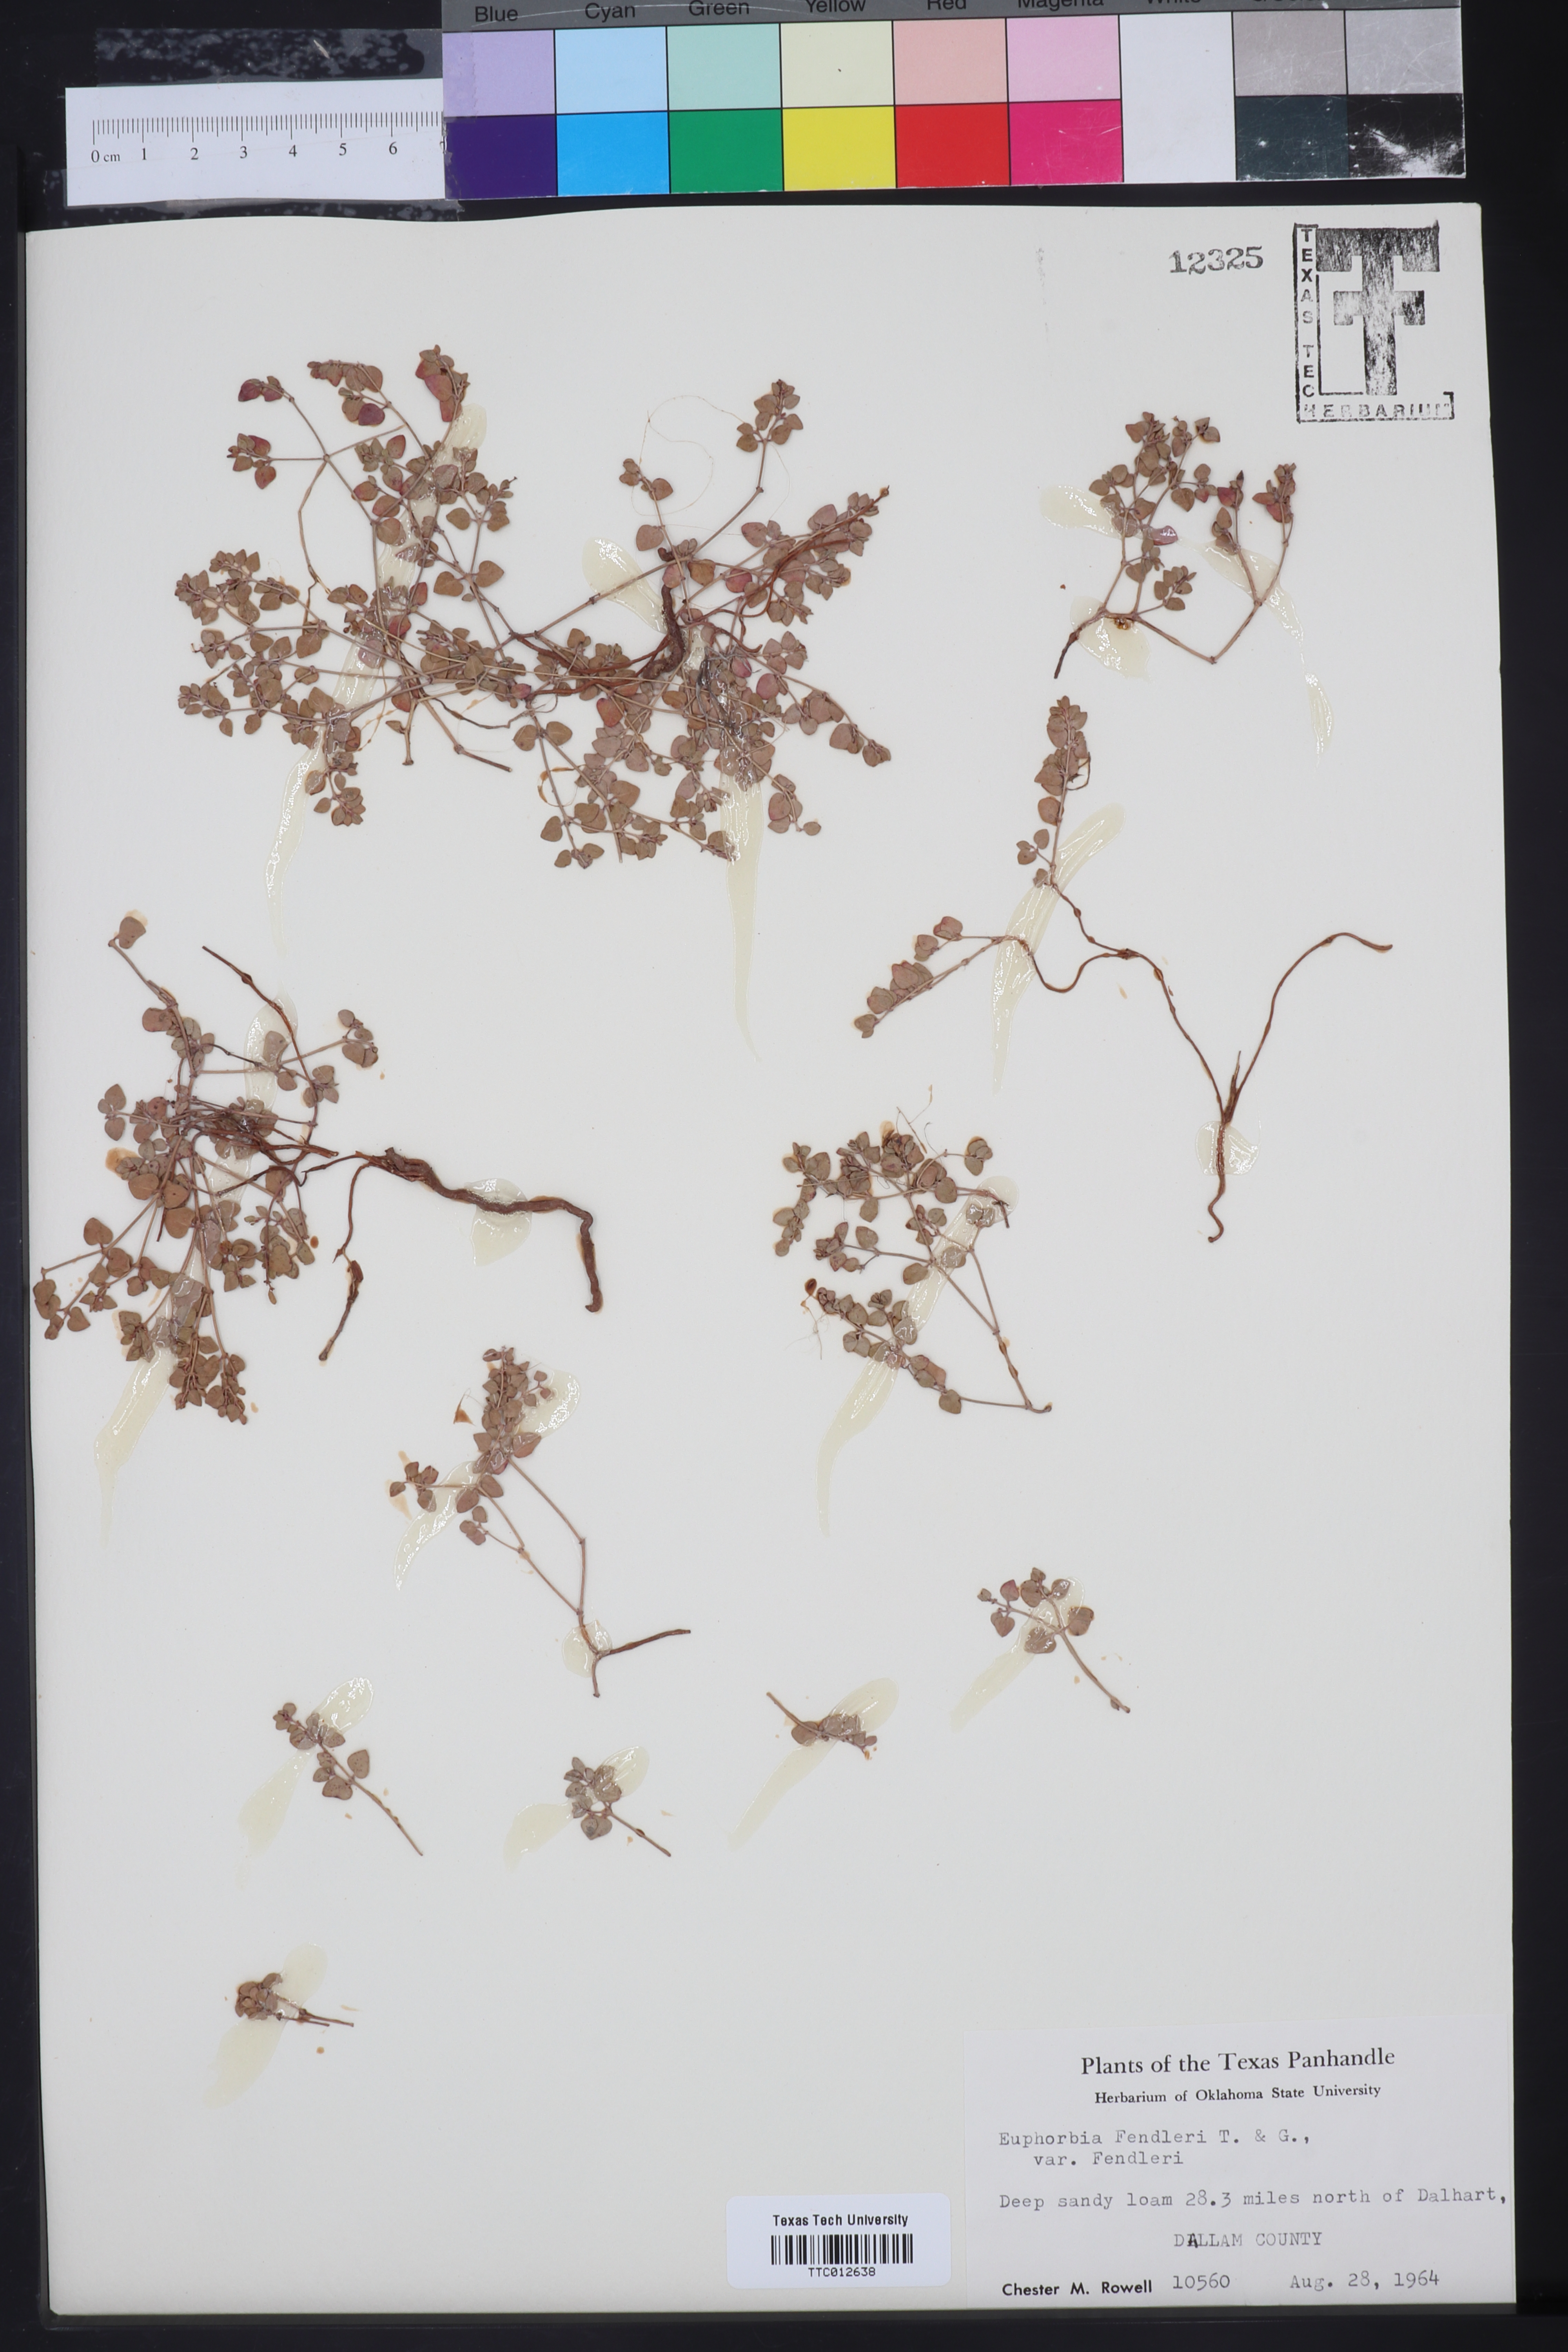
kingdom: Plantae
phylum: Tracheophyta
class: Magnoliopsida
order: Malpighiales
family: Euphorbiaceae
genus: Euphorbia
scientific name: Euphorbia fendleri
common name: Fendler's euphorbia
